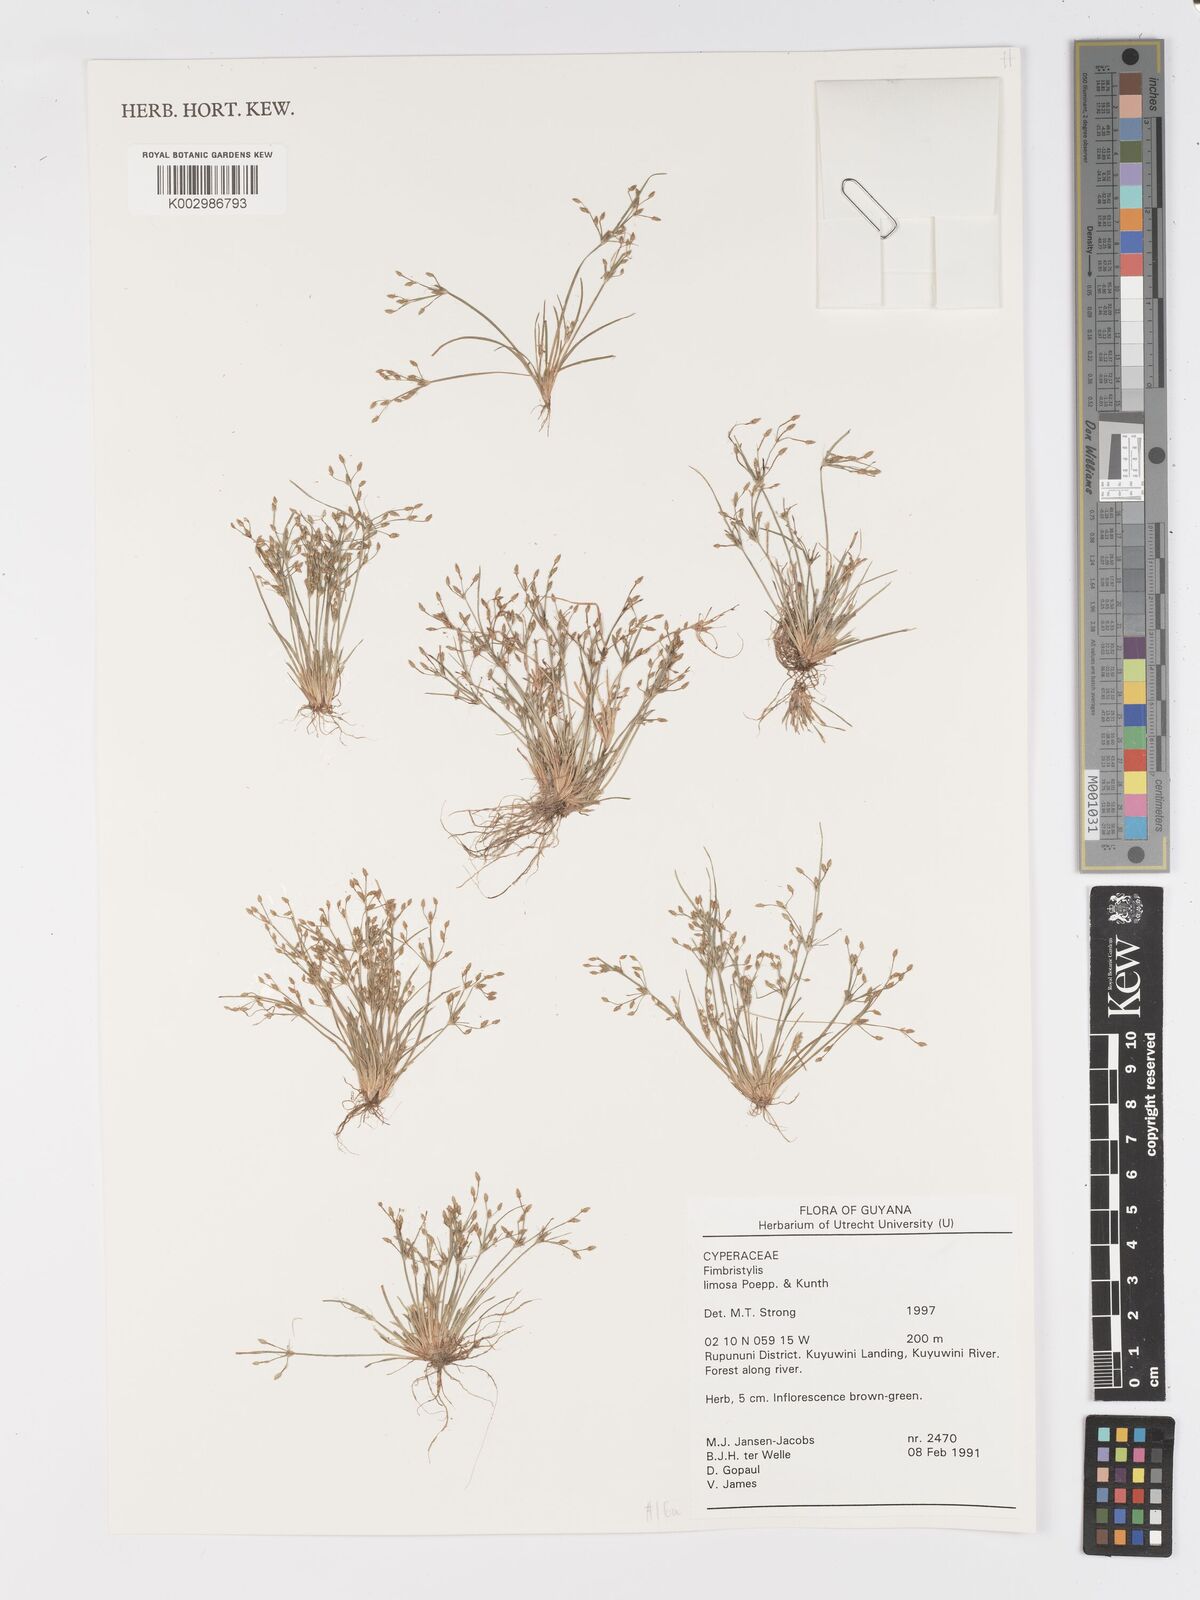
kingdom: Plantae
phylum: Tracheophyta
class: Liliopsida
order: Poales
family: Cyperaceae
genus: Fimbristylis
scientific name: Fimbristylis limosa
